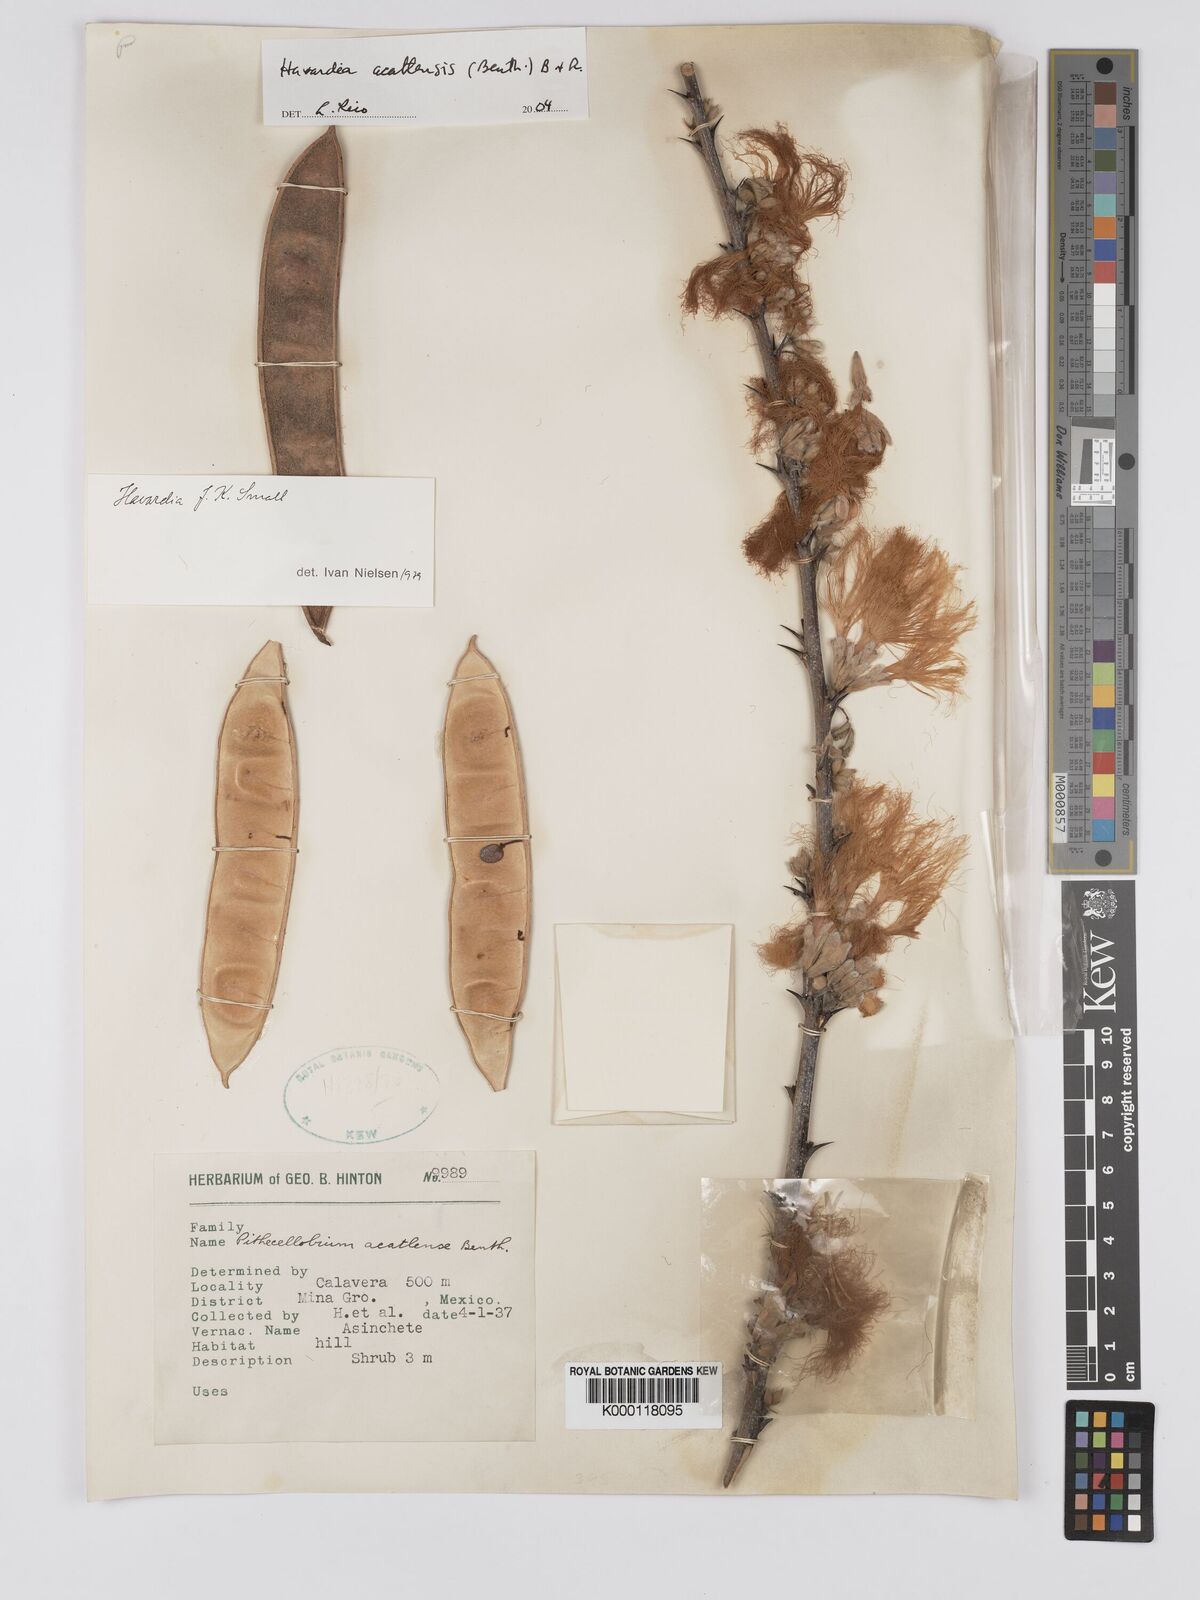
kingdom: Plantae
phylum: Tracheophyta
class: Magnoliopsida
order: Fabales
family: Fabaceae
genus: Havardia
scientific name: Havardia acatlensis
